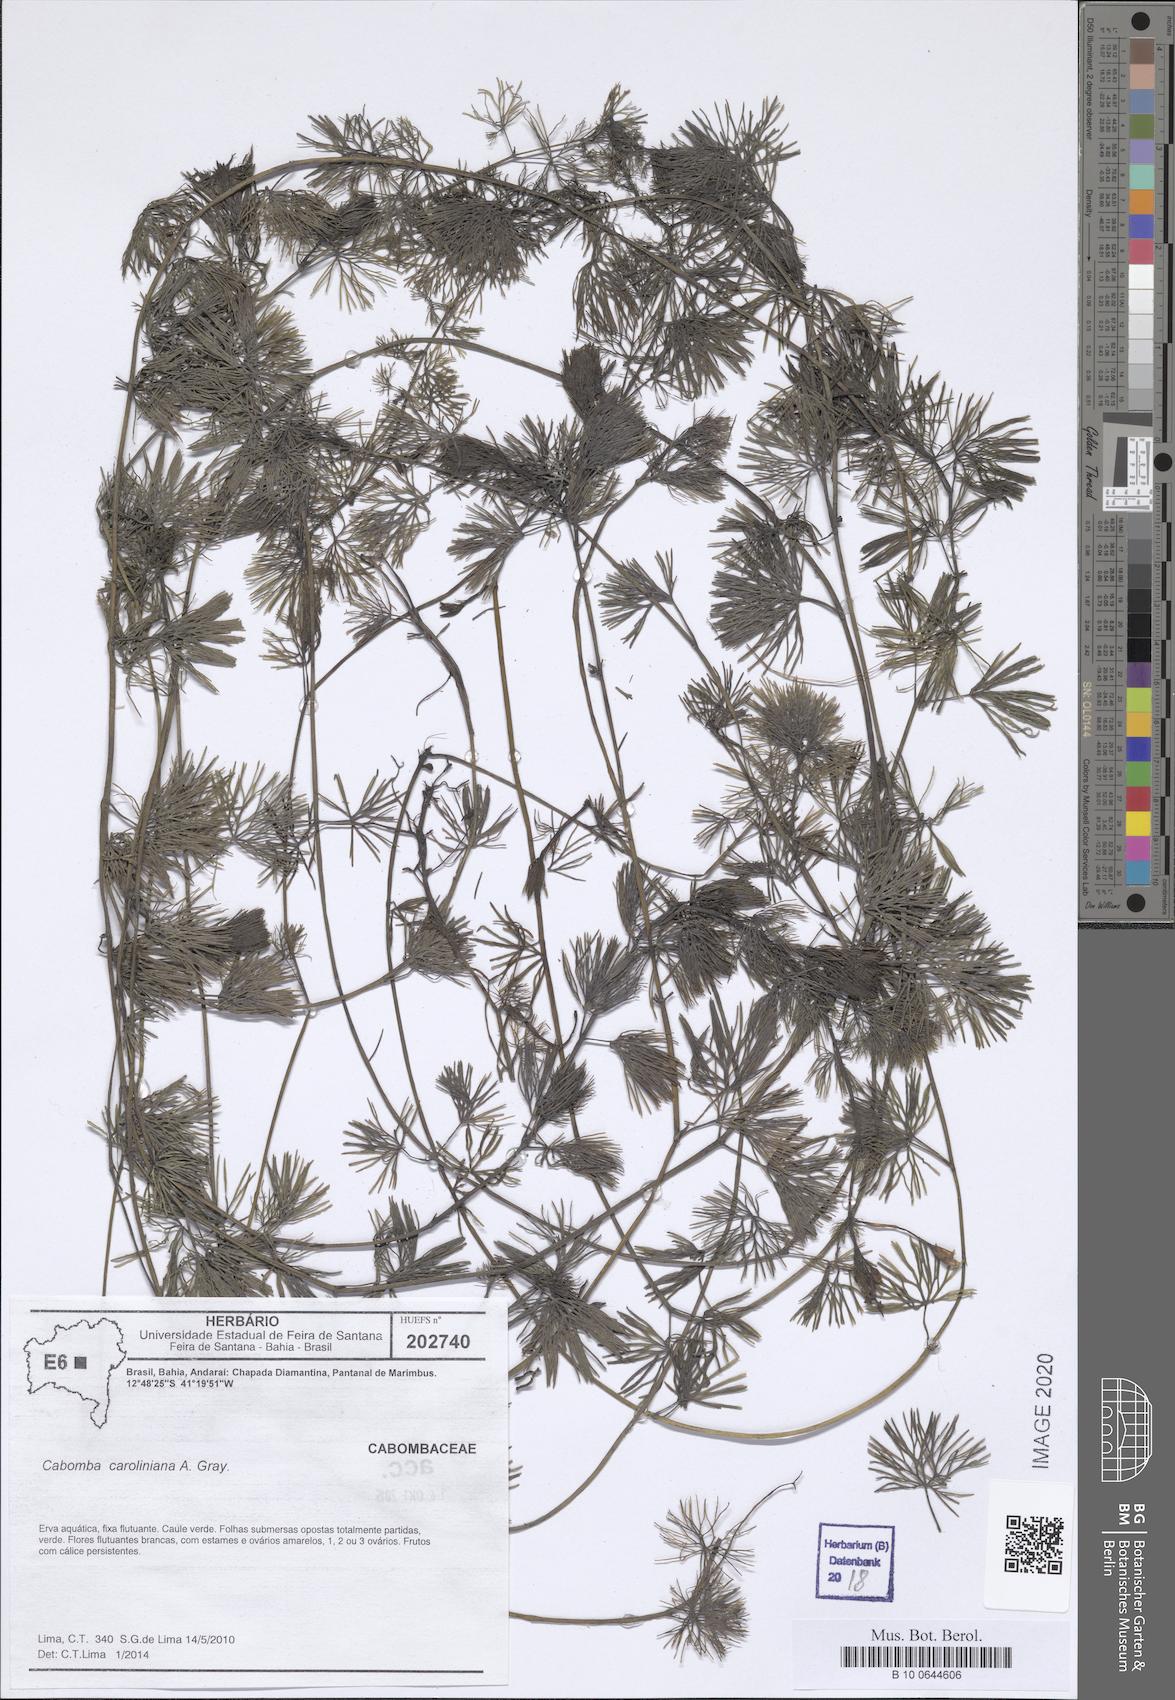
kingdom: Plantae
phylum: Tracheophyta
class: Magnoliopsida
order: Nymphaeales
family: Cabombaceae
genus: Cabomba
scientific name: Cabomba caroliniana
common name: Fanwort
